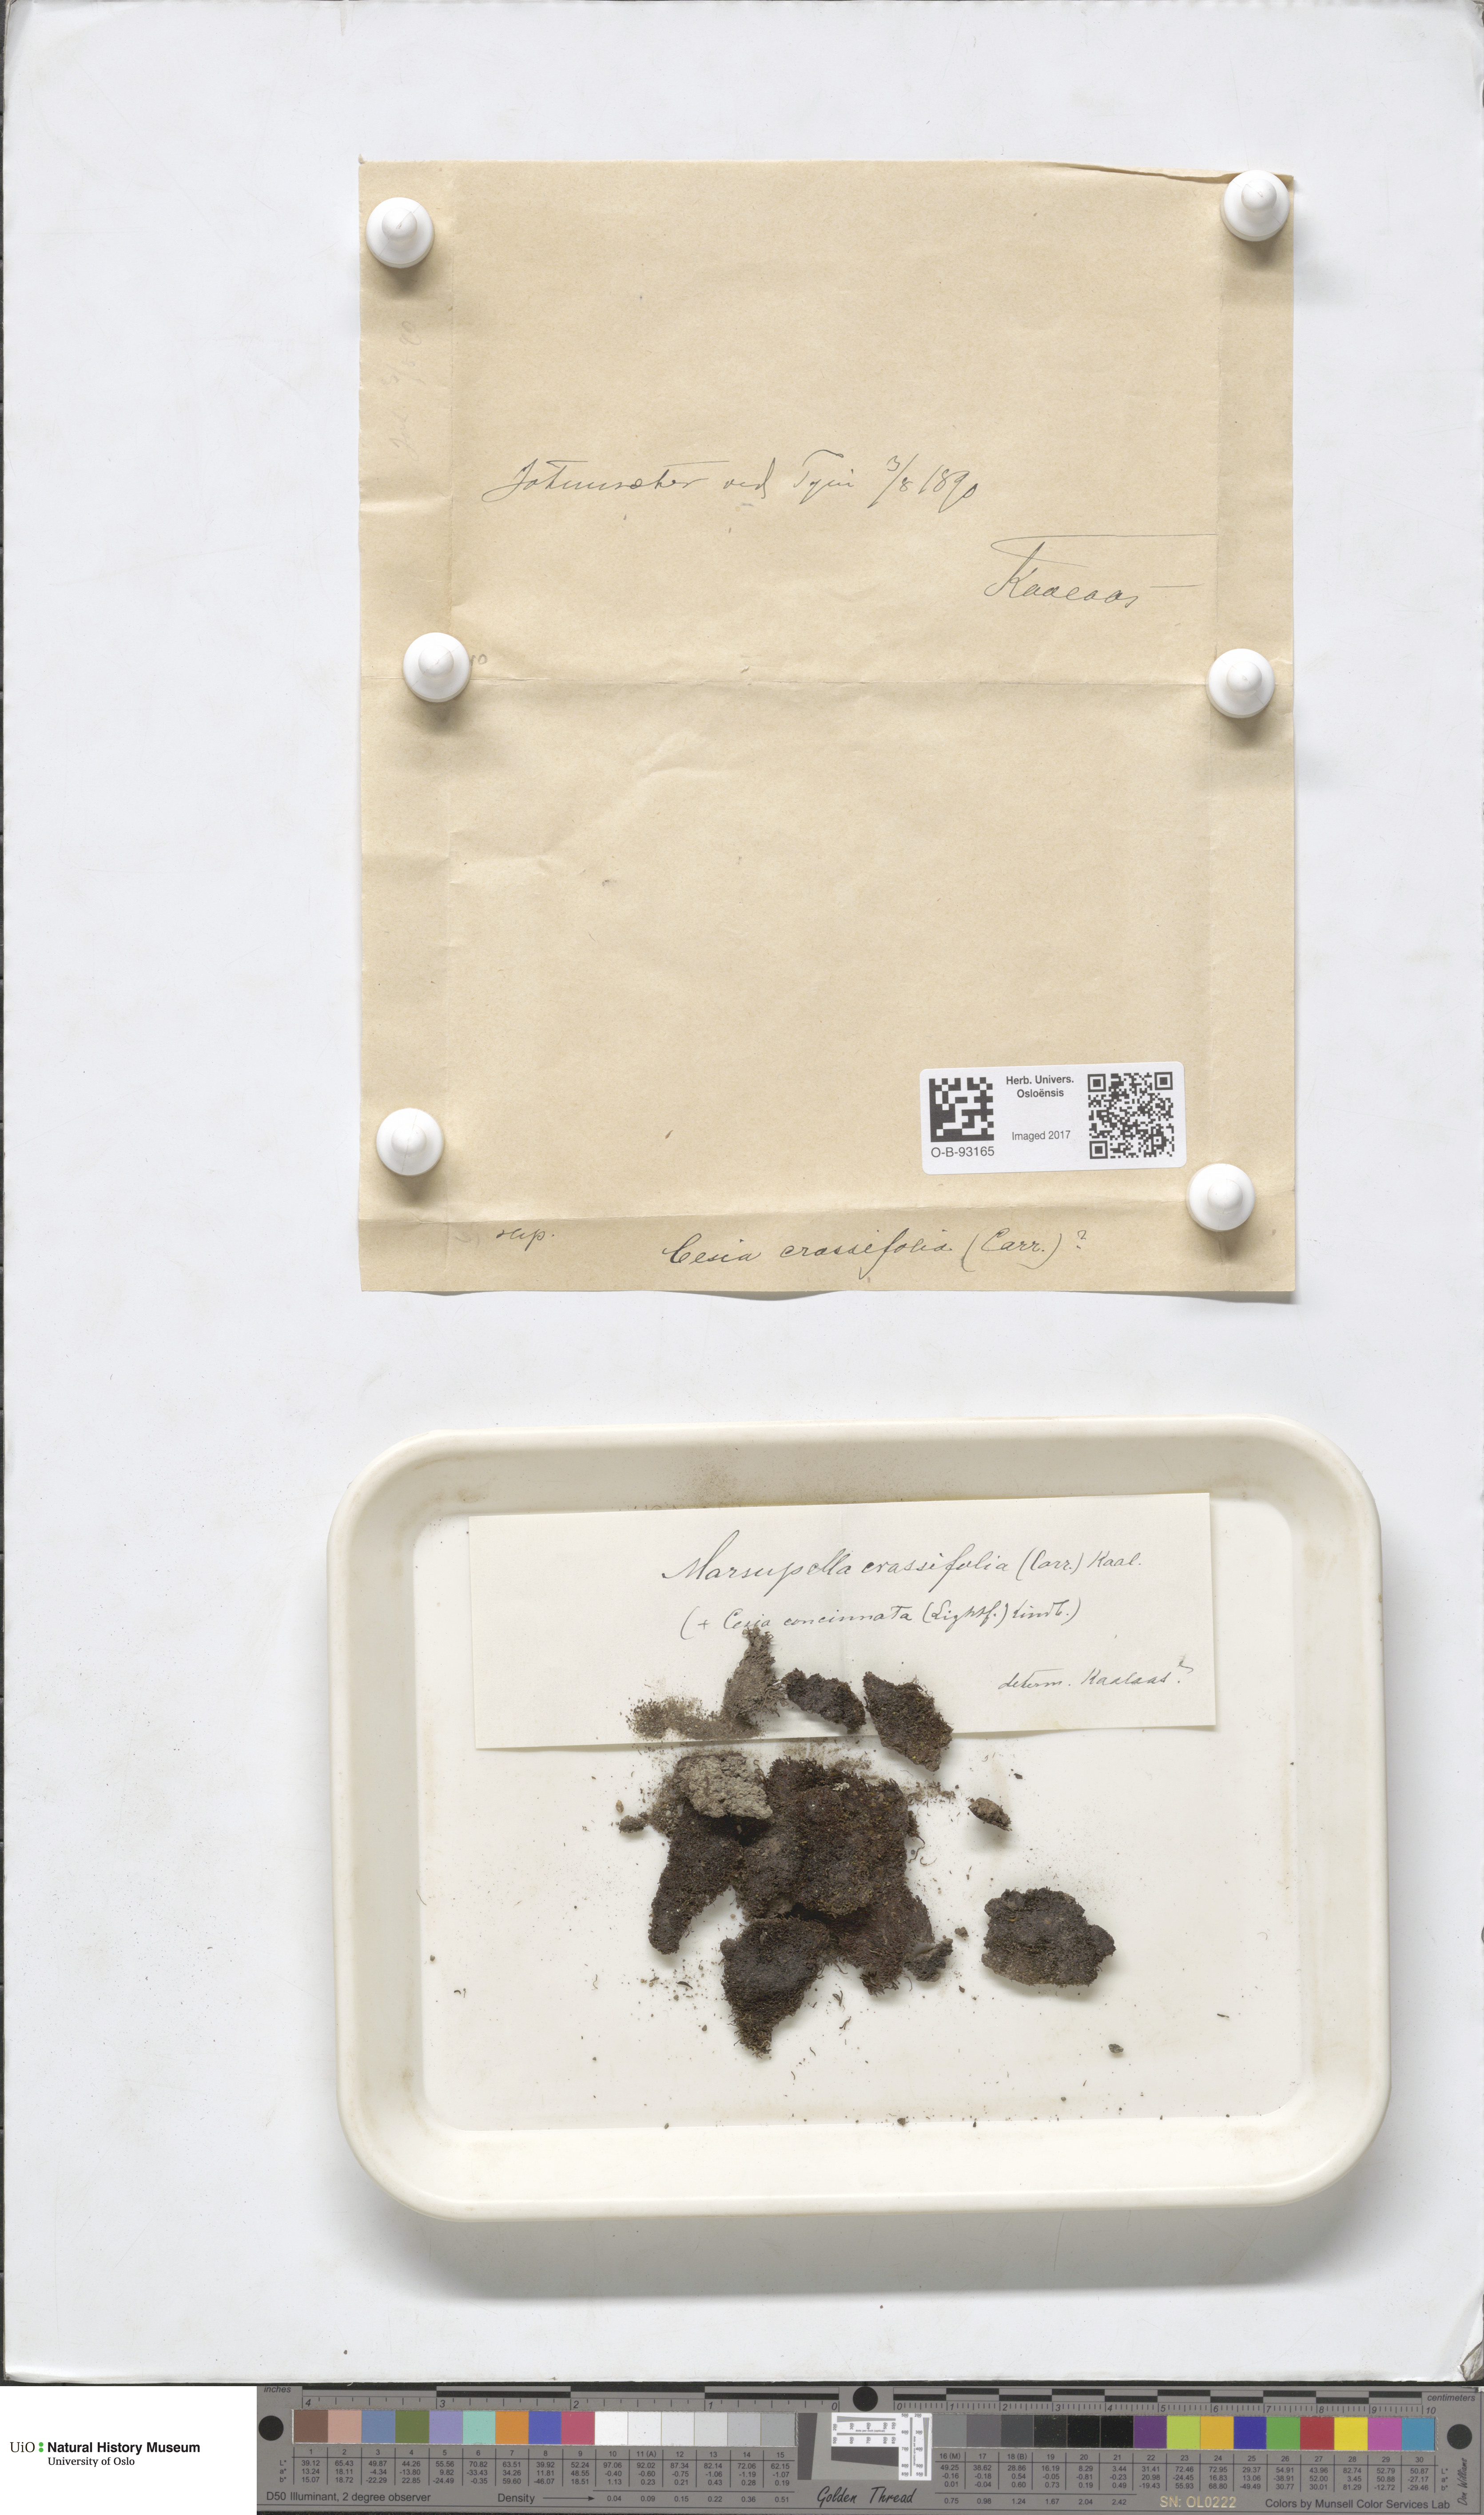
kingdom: Plantae
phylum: Marchantiophyta
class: Jungermanniopsida
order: Jungermanniales
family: Gymnomitriaceae
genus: Gymnomitrion
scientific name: Gymnomitrion brevissimum
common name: Snow rustwort
